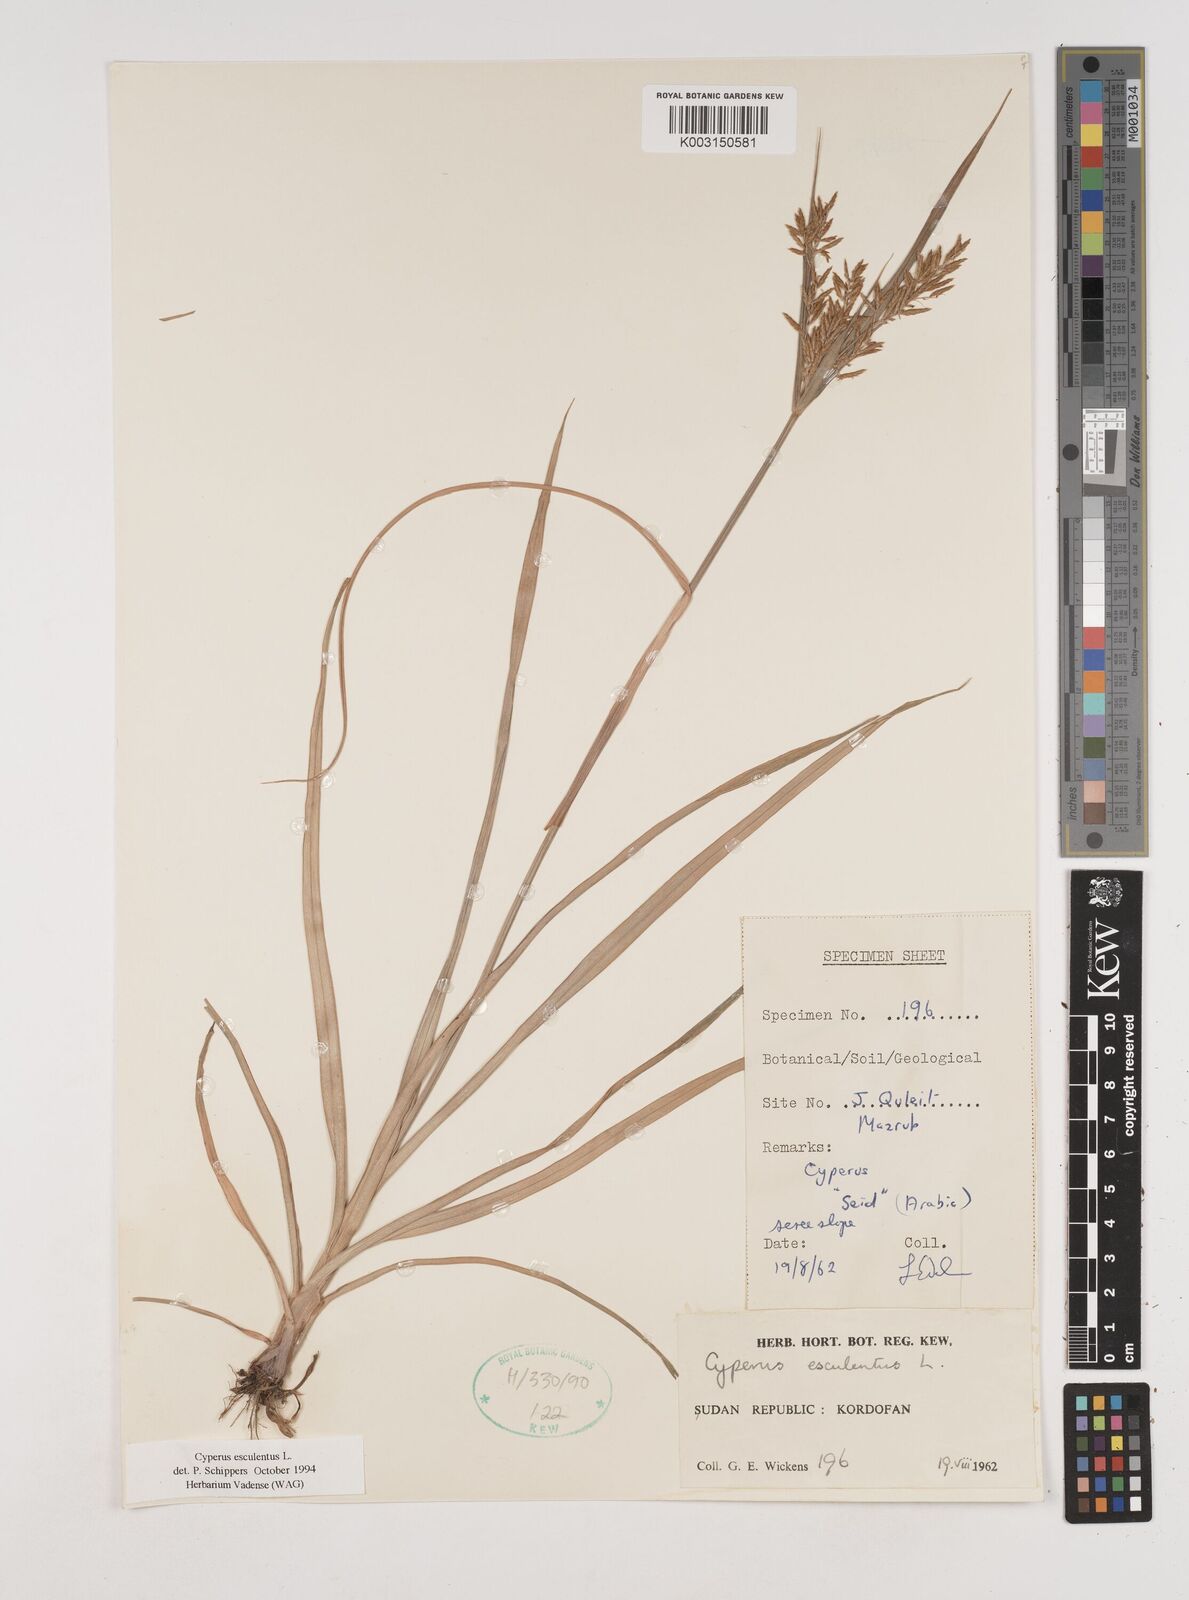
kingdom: Plantae
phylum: Tracheophyta
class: Liliopsida
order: Poales
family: Cyperaceae
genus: Cyperus
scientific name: Cyperus esculentus
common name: Yellow nutsedge
